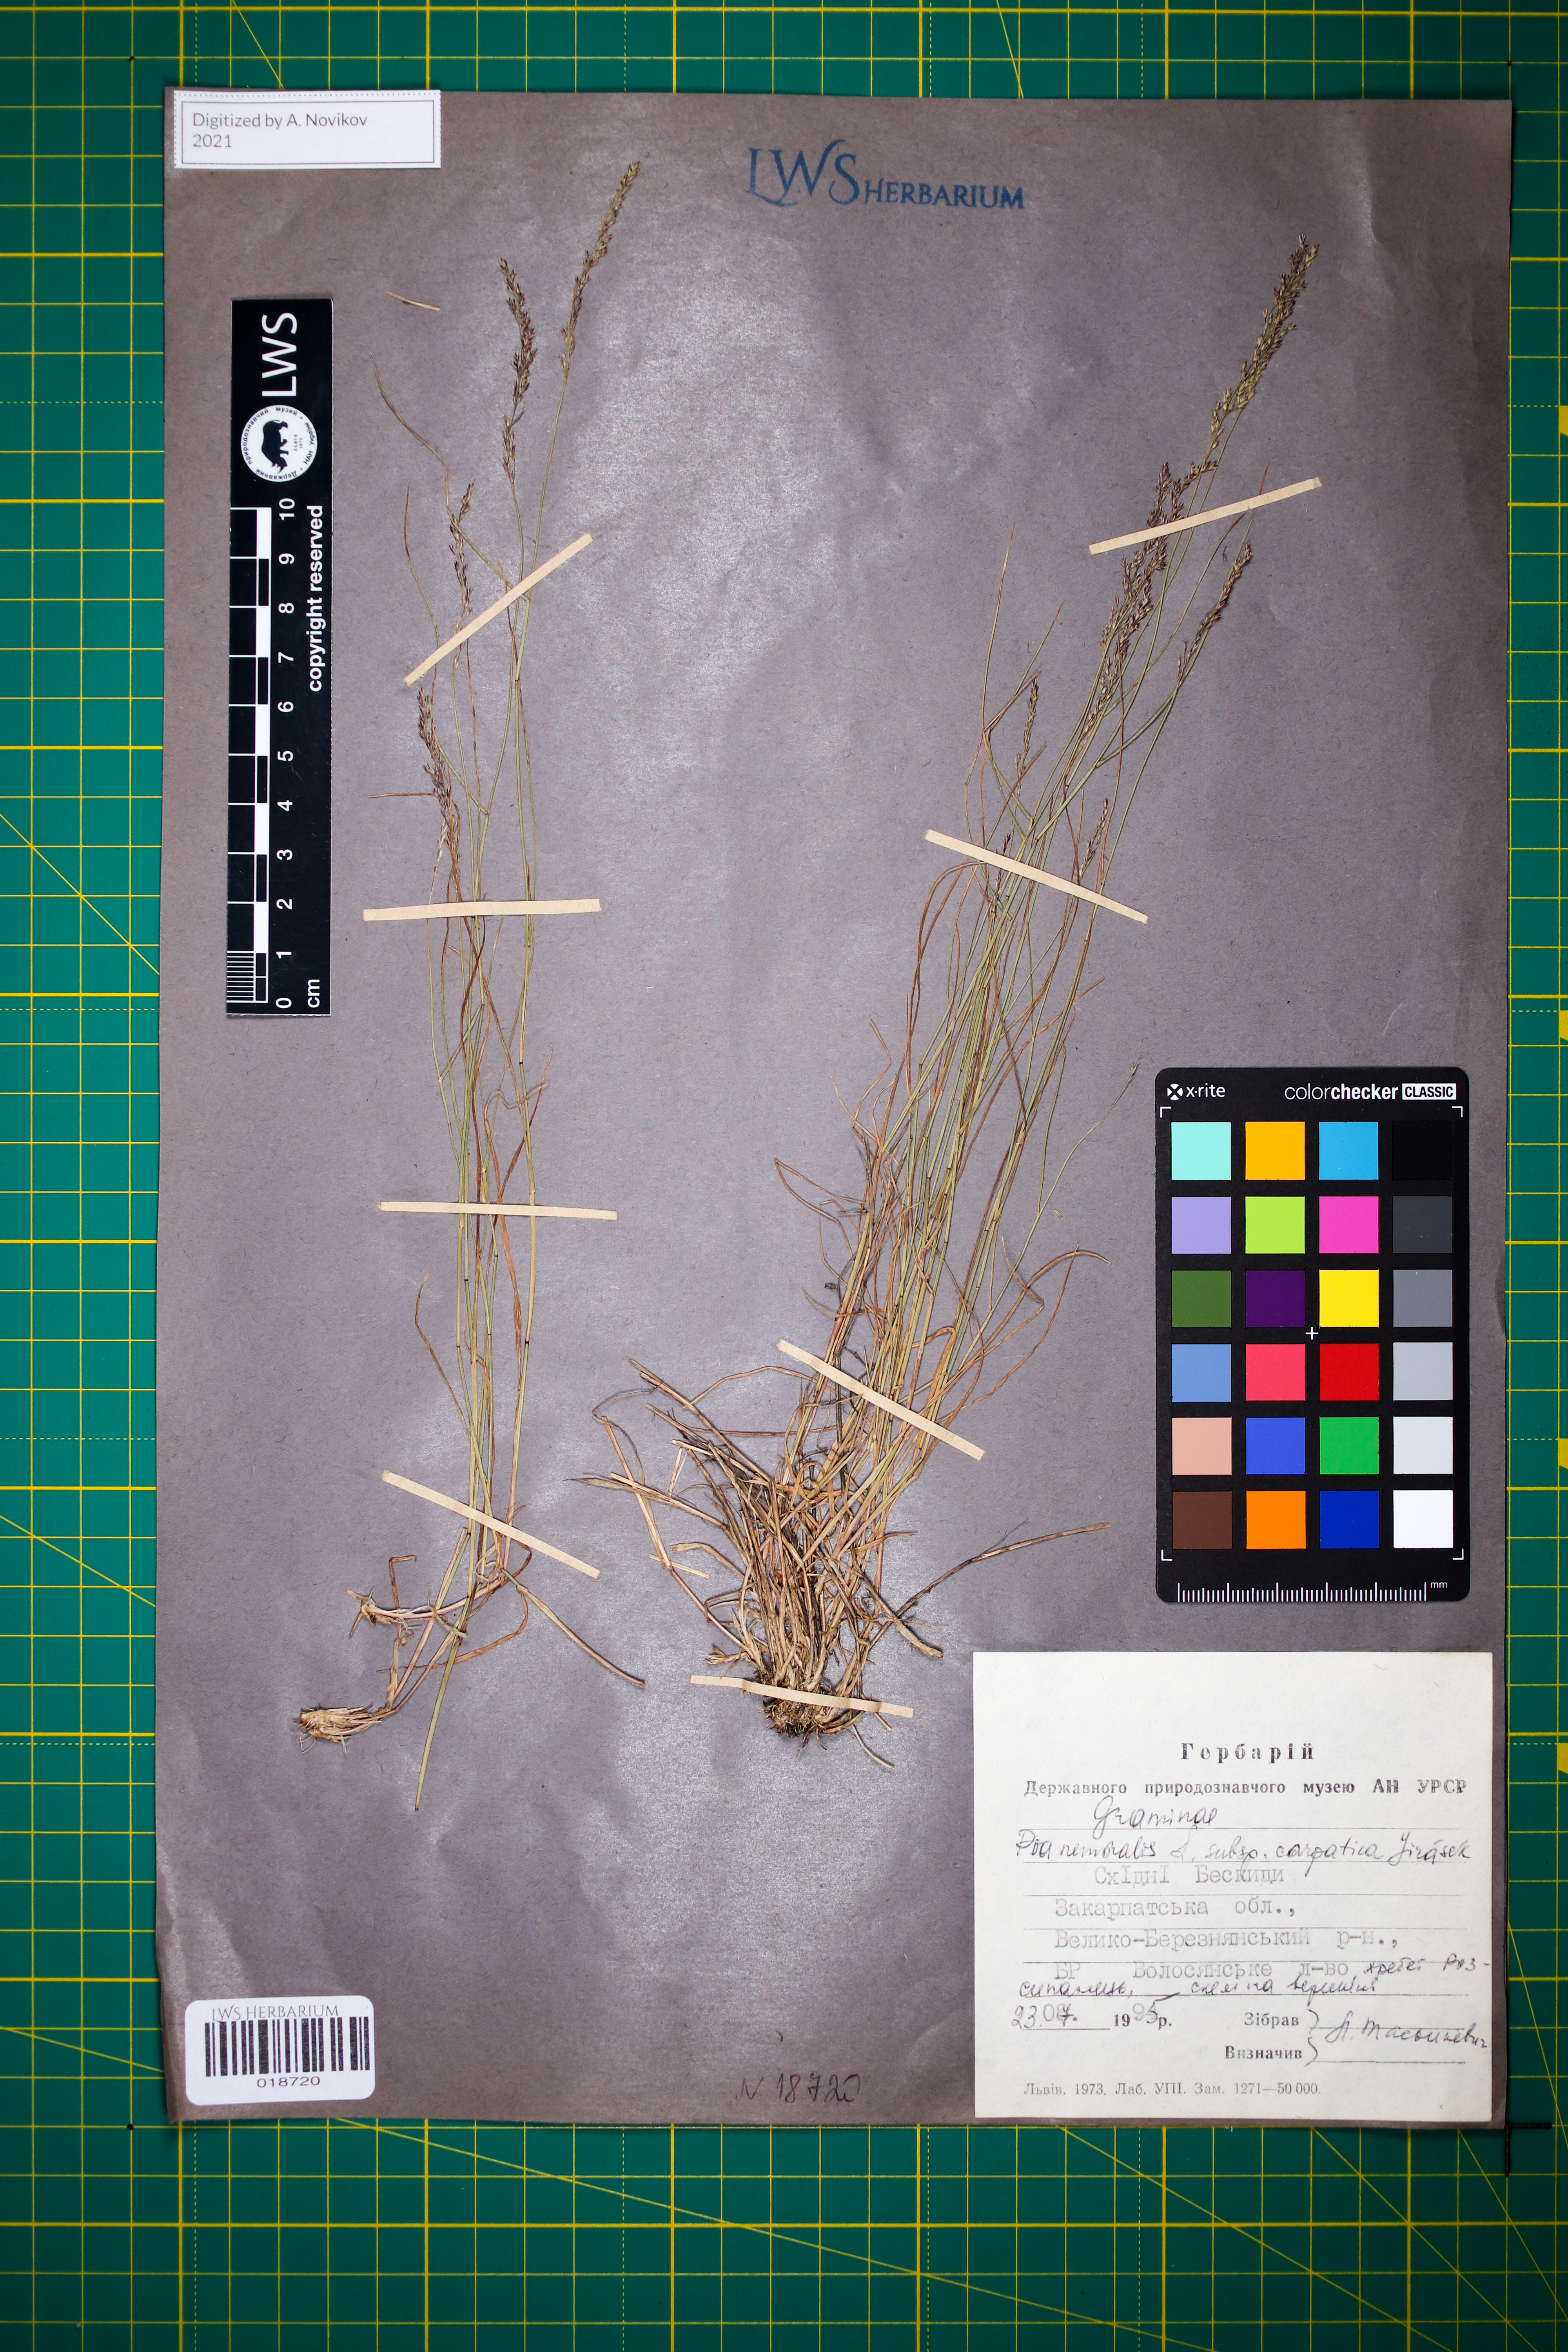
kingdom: Plantae
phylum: Tracheophyta
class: Liliopsida
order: Poales
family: Poaceae
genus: Poa
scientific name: Poa carpatica
